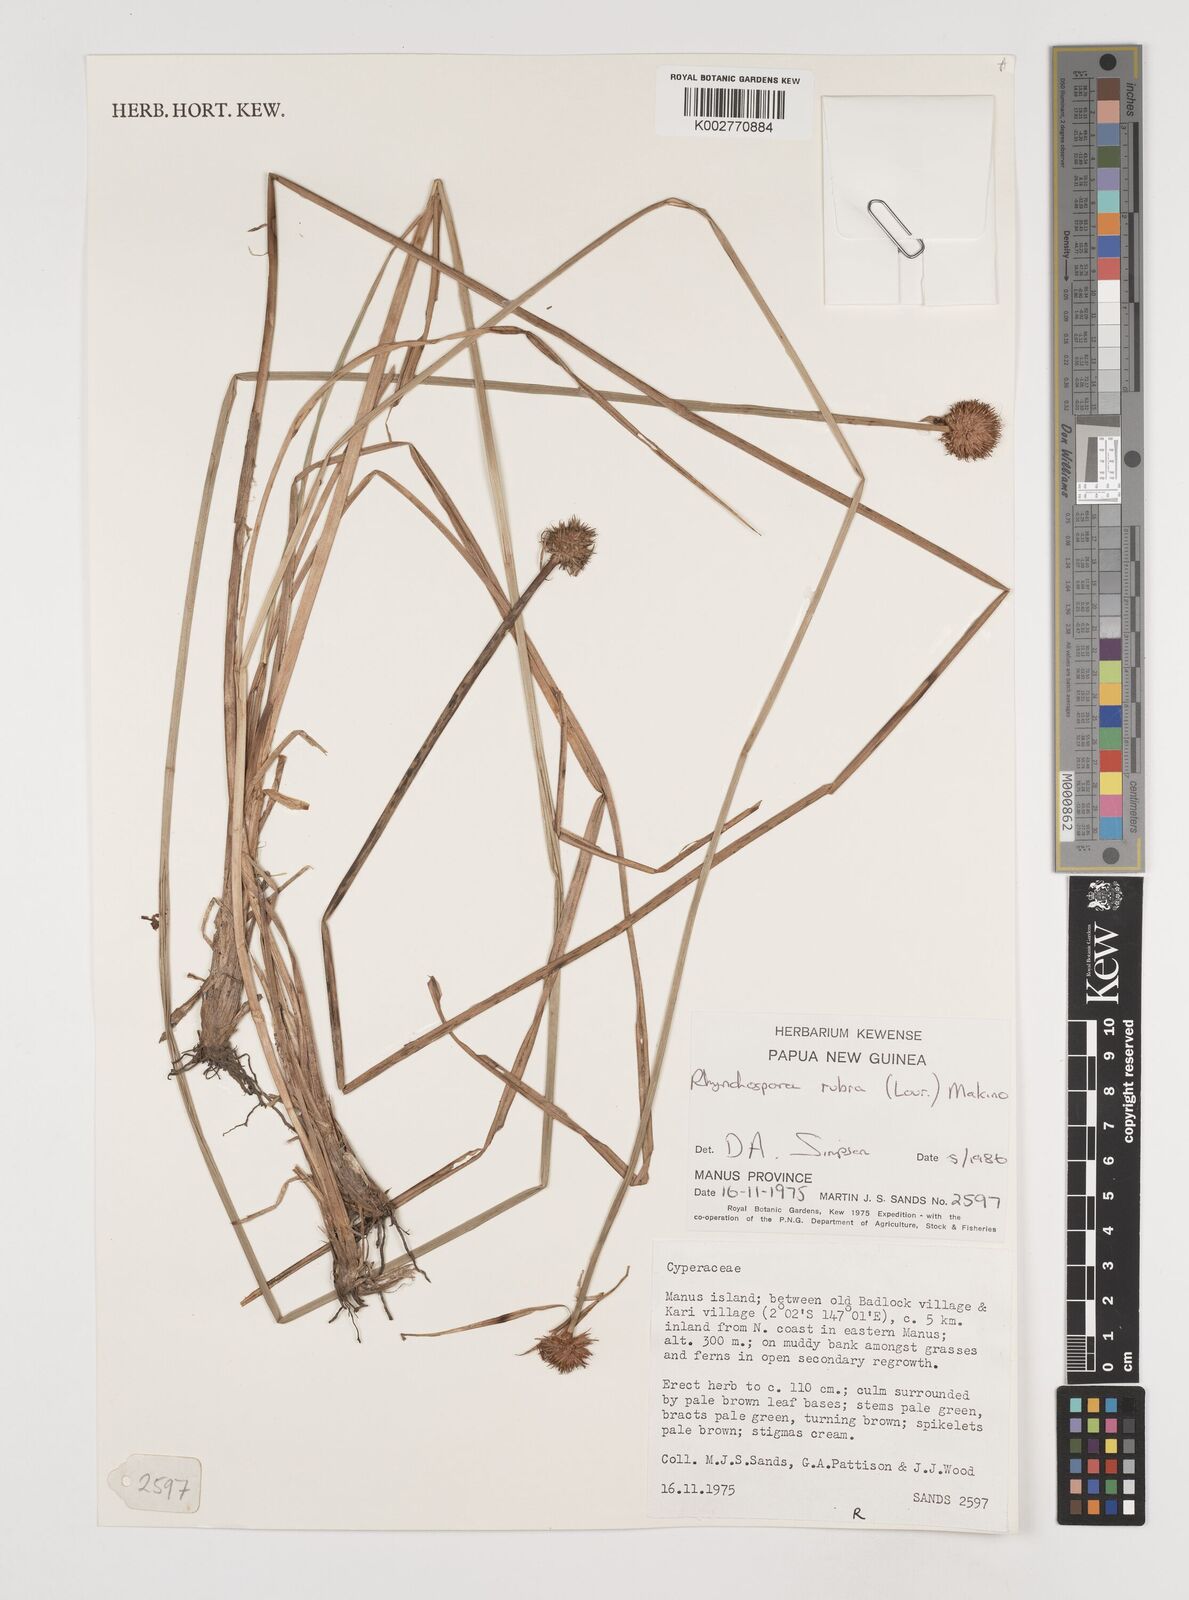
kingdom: Plantae
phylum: Tracheophyta
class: Liliopsida
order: Poales
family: Cyperaceae
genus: Rhynchospora
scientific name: Rhynchospora rubra
